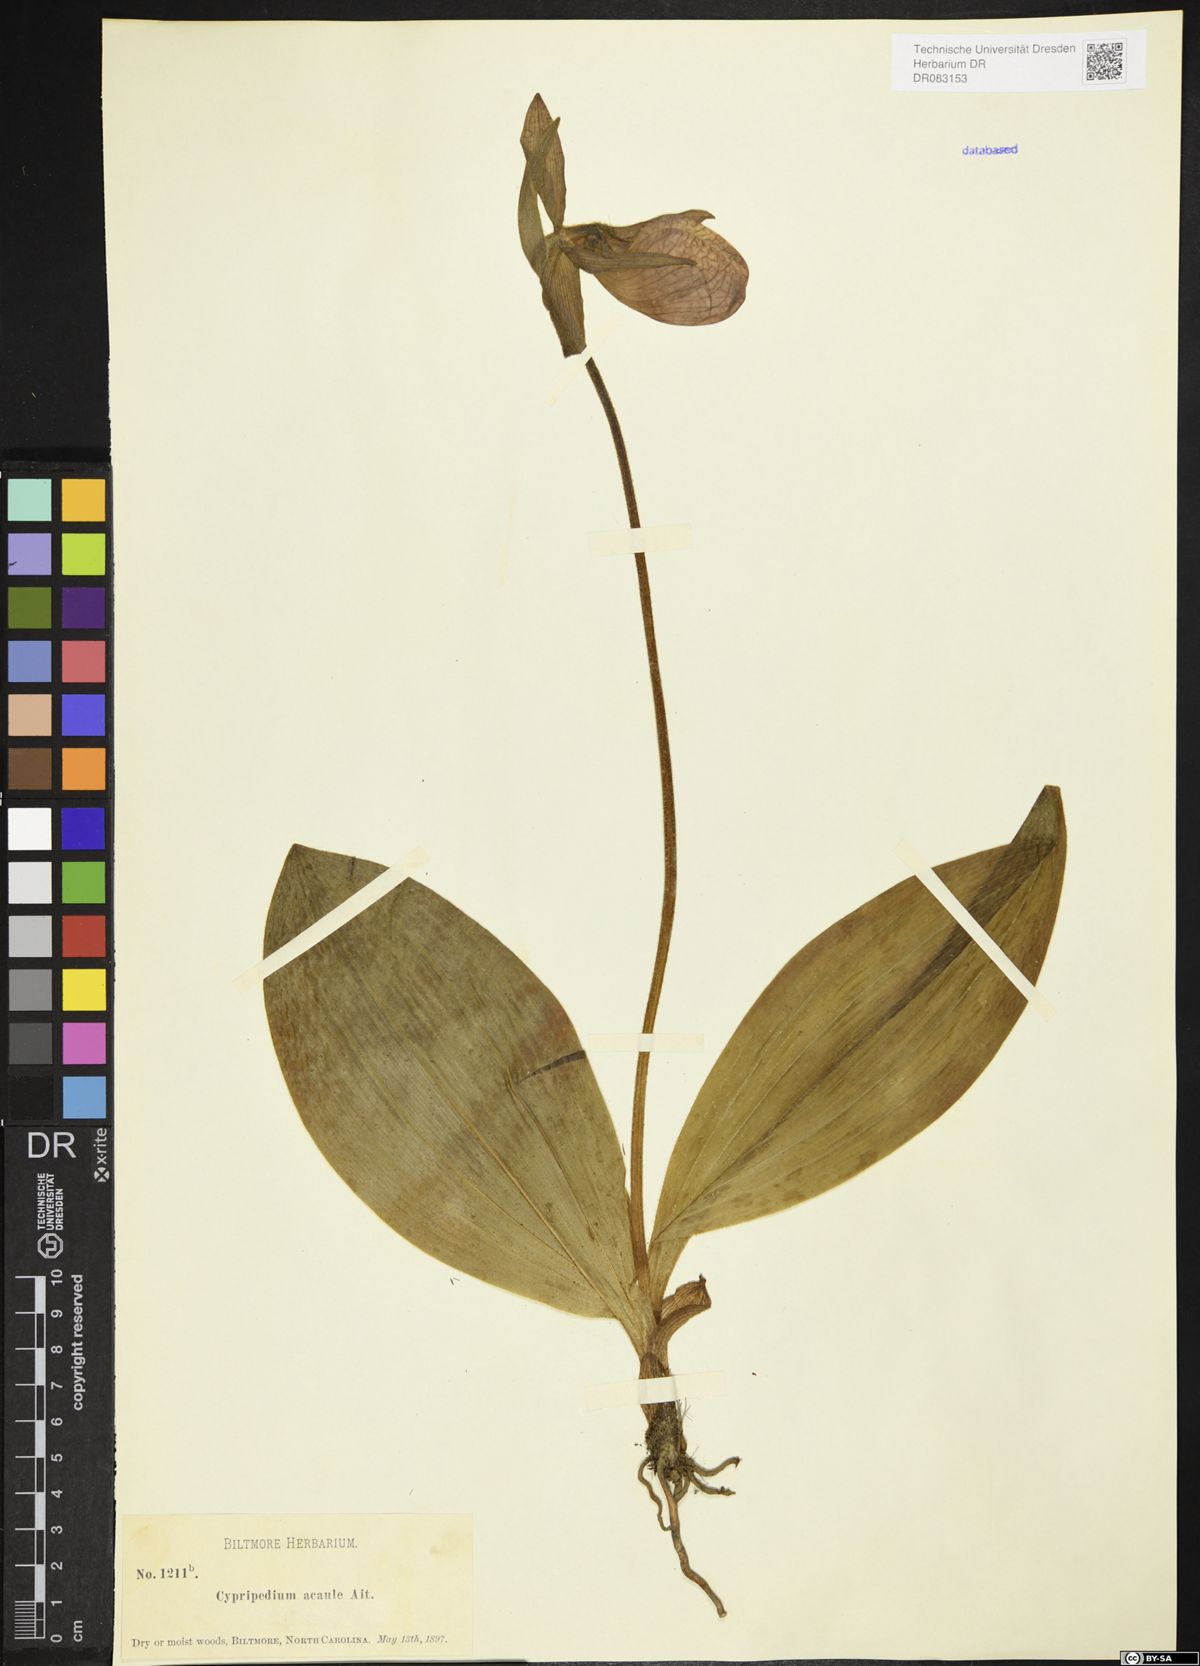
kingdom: Plantae
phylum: Tracheophyta
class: Liliopsida
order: Asparagales
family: Orchidaceae
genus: Cypripedium
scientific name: Cypripedium acaule
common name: Pink lady's-slipper
